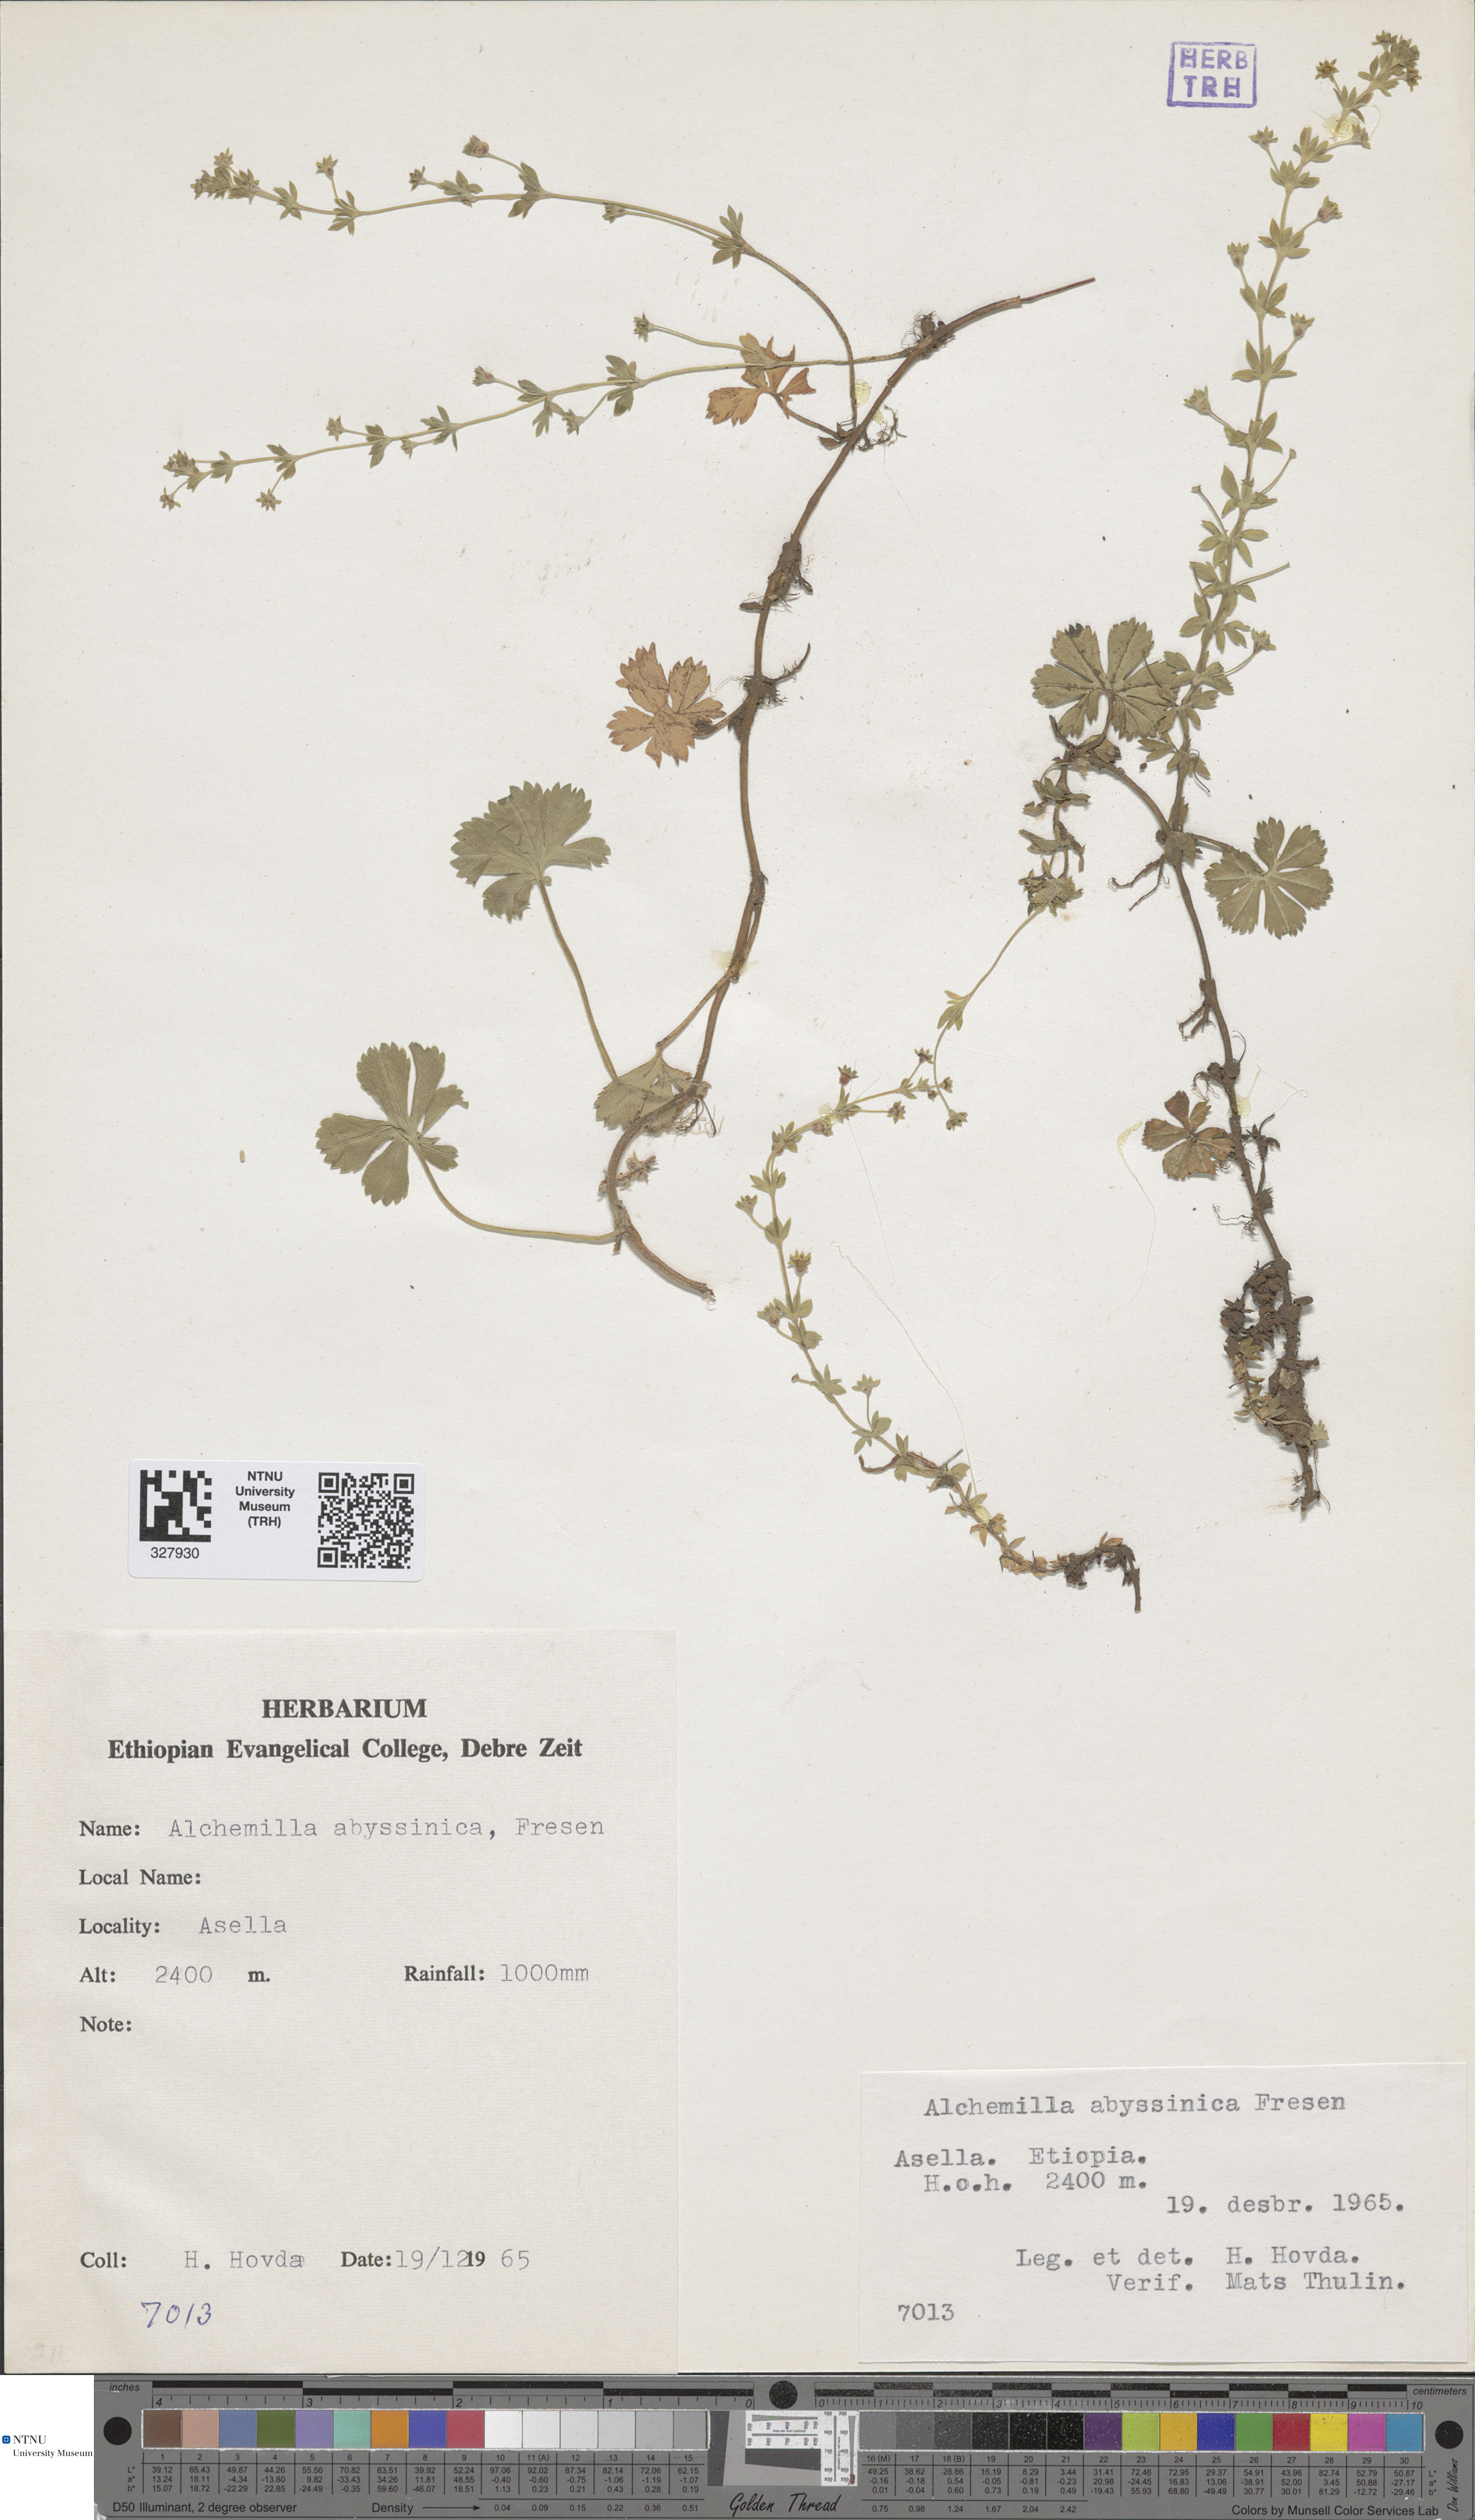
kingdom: Plantae
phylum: Tracheophyta
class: Magnoliopsida
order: Rosales
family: Rosaceae
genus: Alchemilla
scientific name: Alchemilla abyssinica
